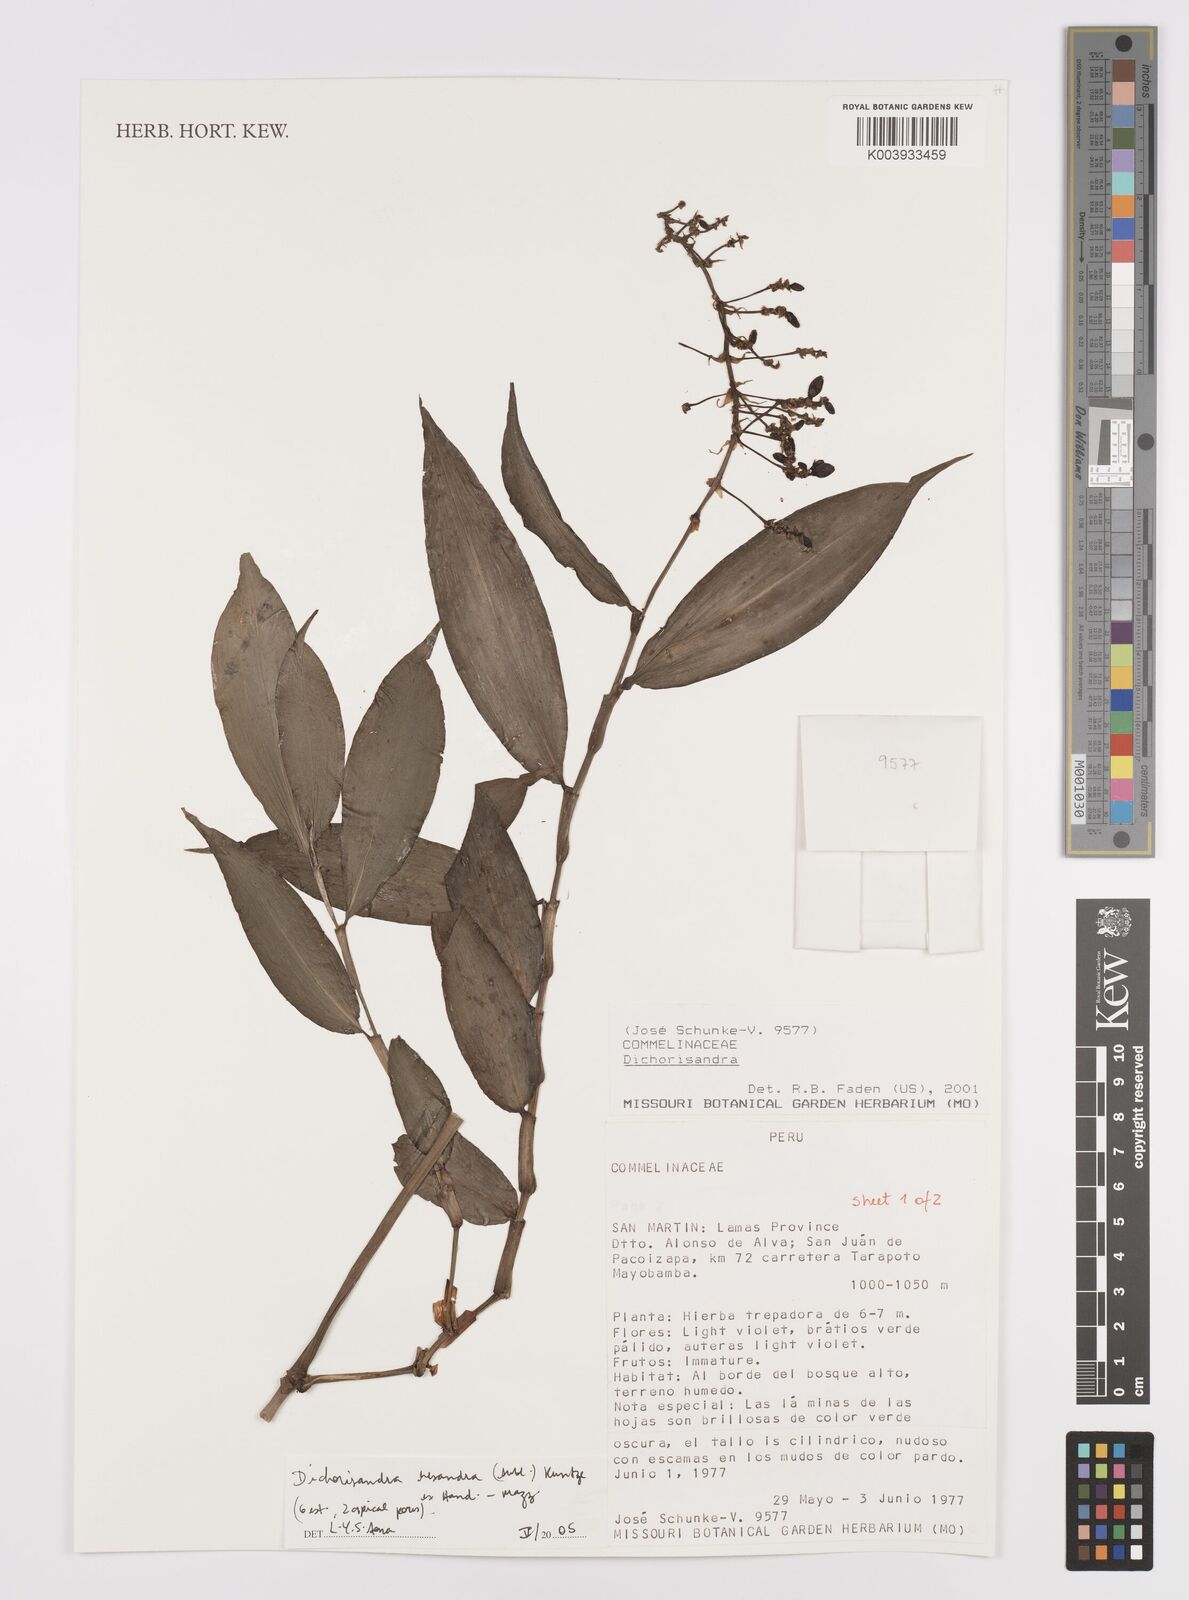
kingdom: Plantae
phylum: Tracheophyta
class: Liliopsida
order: Commelinales
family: Commelinaceae
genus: Dichorisandra
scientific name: Dichorisandra hexandra
